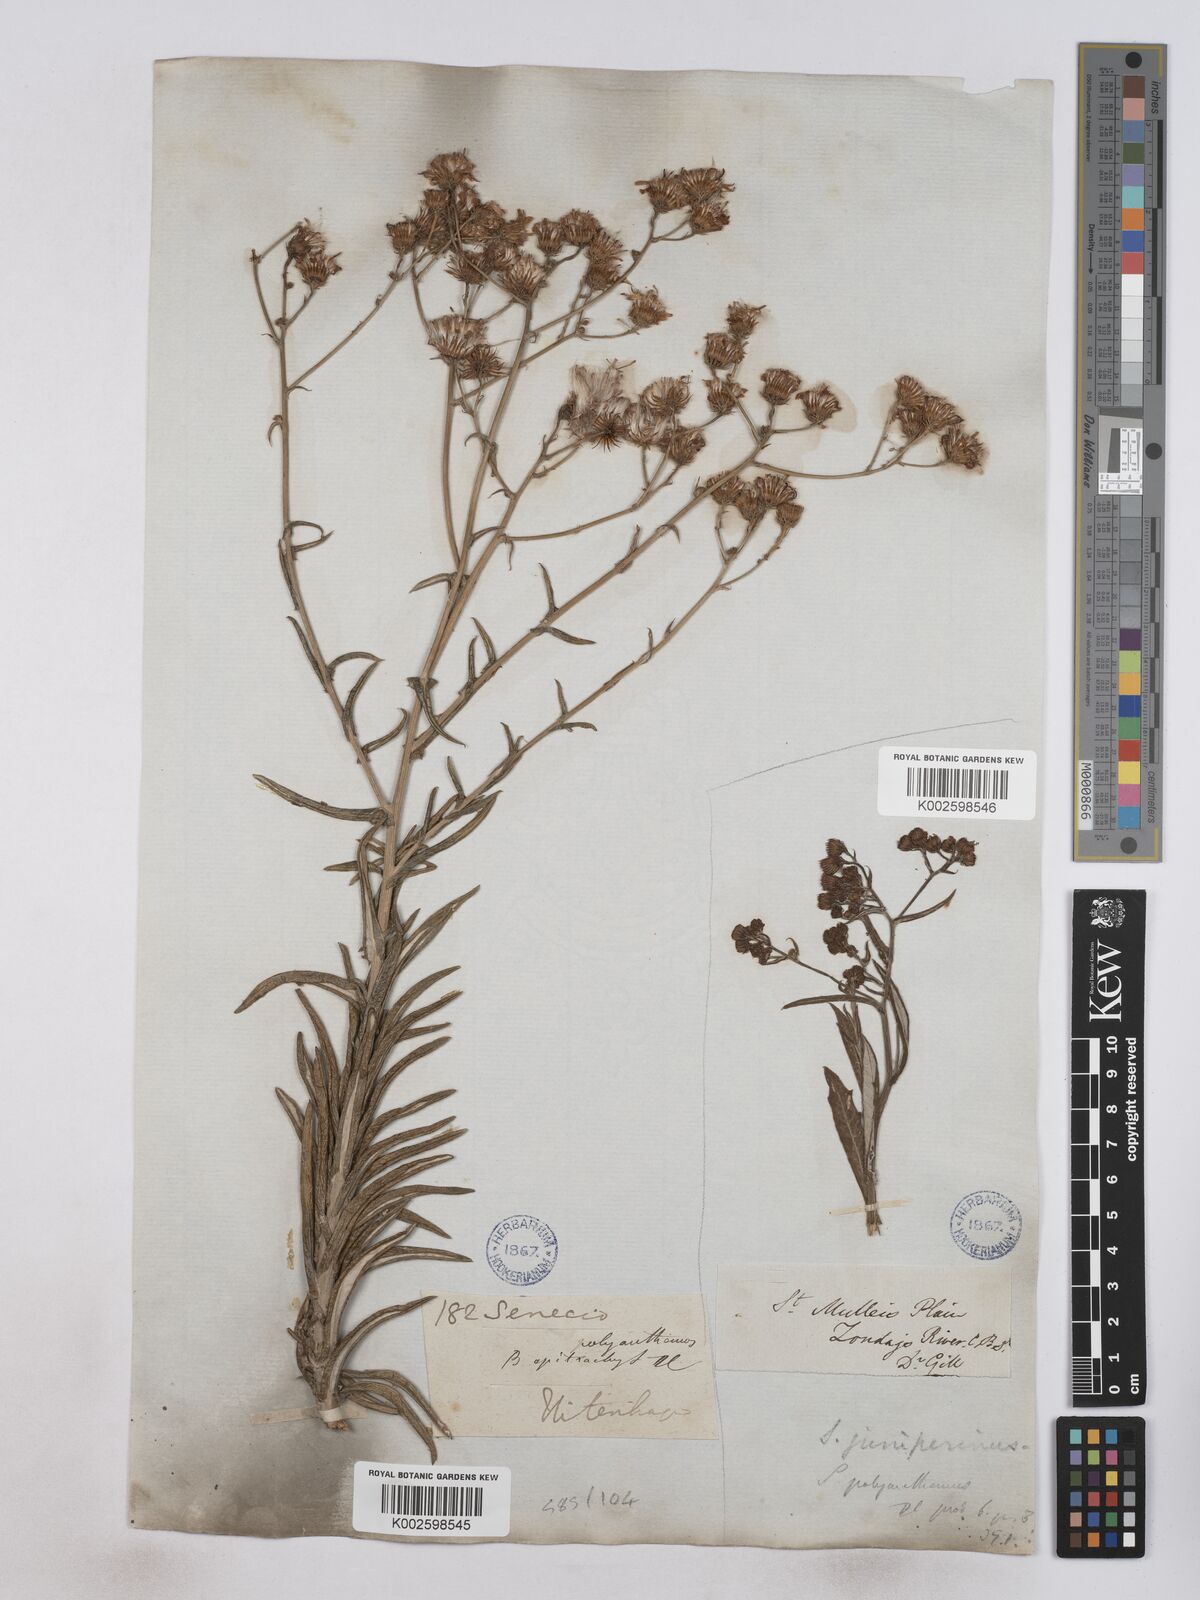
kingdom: Plantae
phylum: Tracheophyta
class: Magnoliopsida
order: Asterales
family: Asteraceae
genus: Senecio
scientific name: Senecio juniperinus
